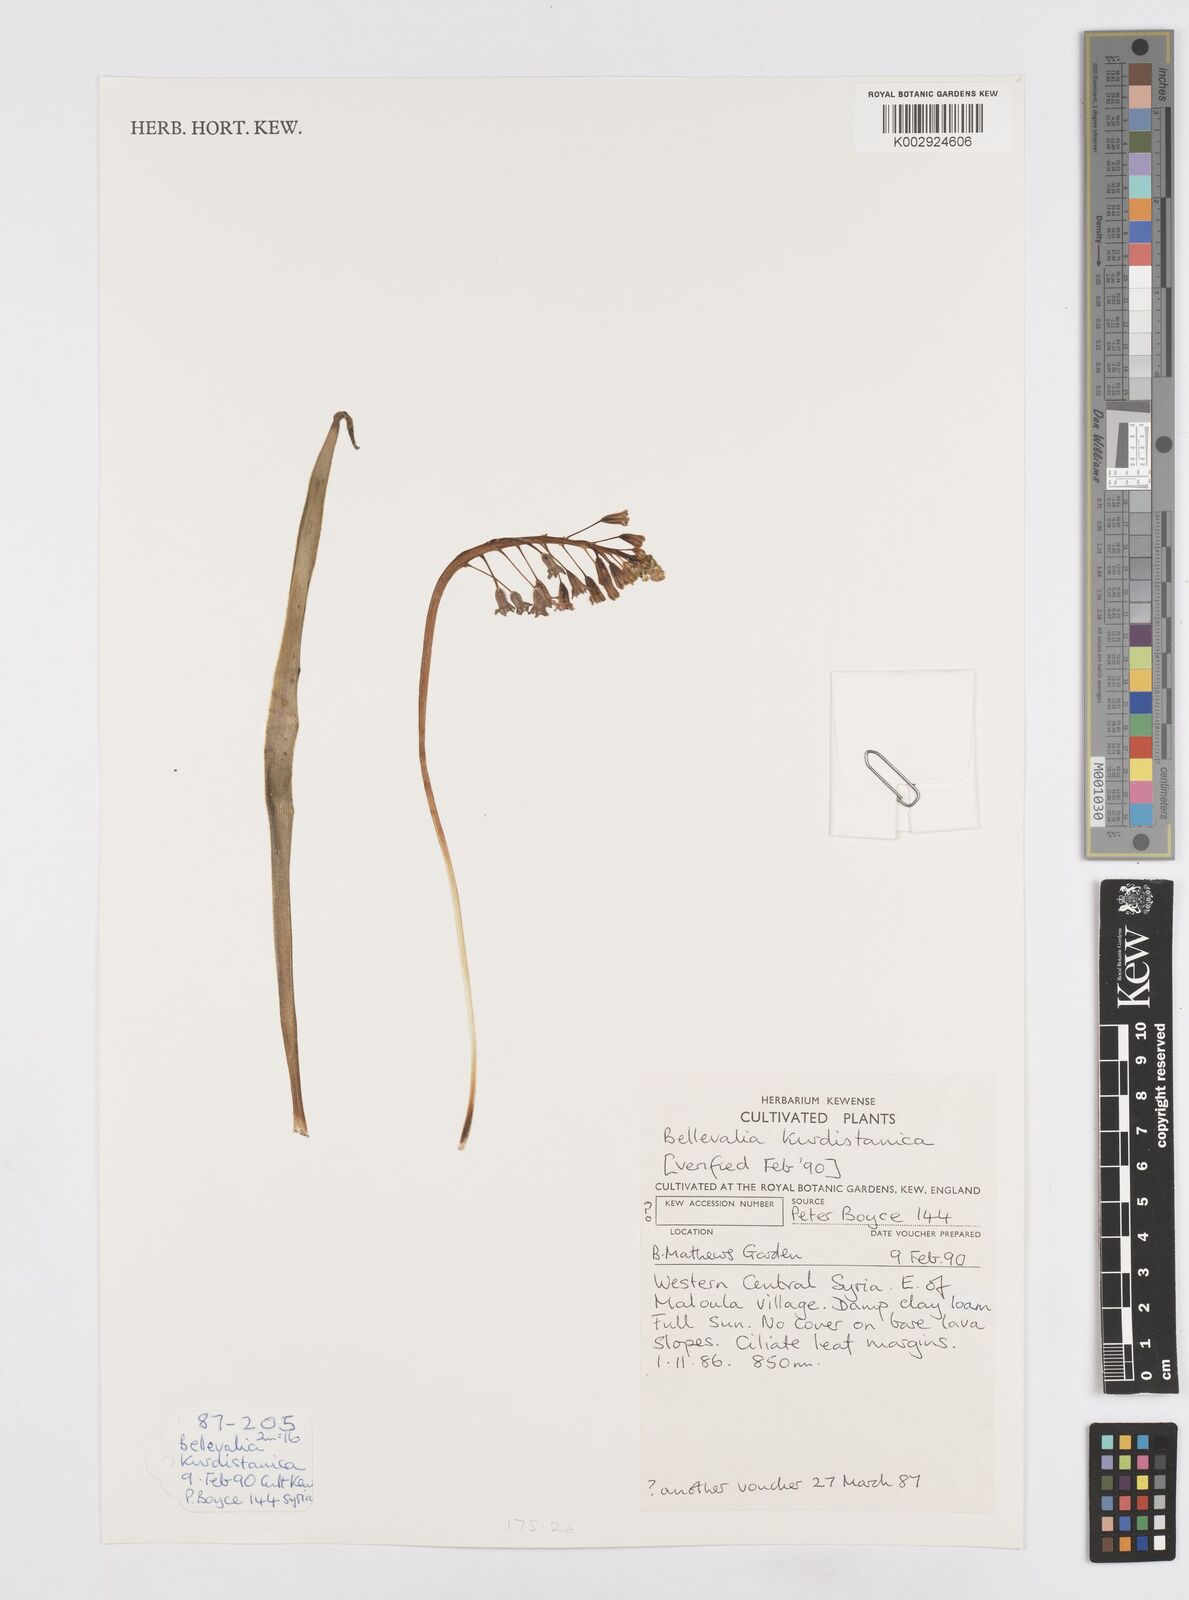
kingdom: Plantae
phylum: Tracheophyta
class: Liliopsida
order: Asparagales
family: Asparagaceae
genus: Bellevalia
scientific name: Bellevalia kurdistanica
